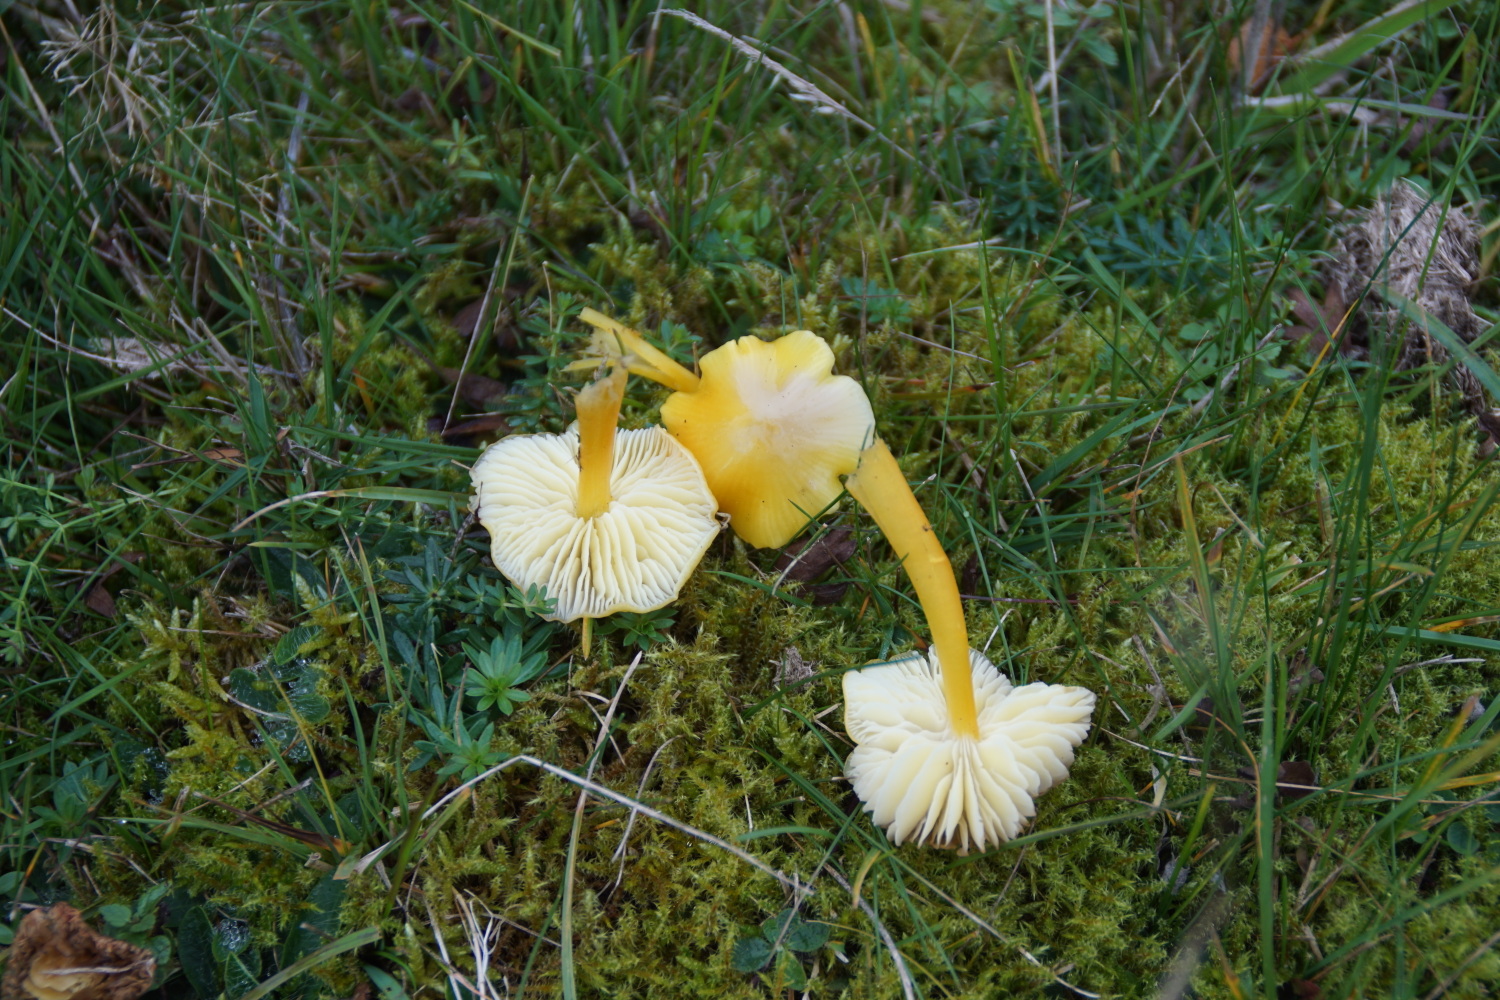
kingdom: Fungi
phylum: Basidiomycota
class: Agaricomycetes
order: Agaricales
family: Hygrophoraceae
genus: Hygrocybe
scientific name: Hygrocybe chlorophana
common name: gul vokshat
